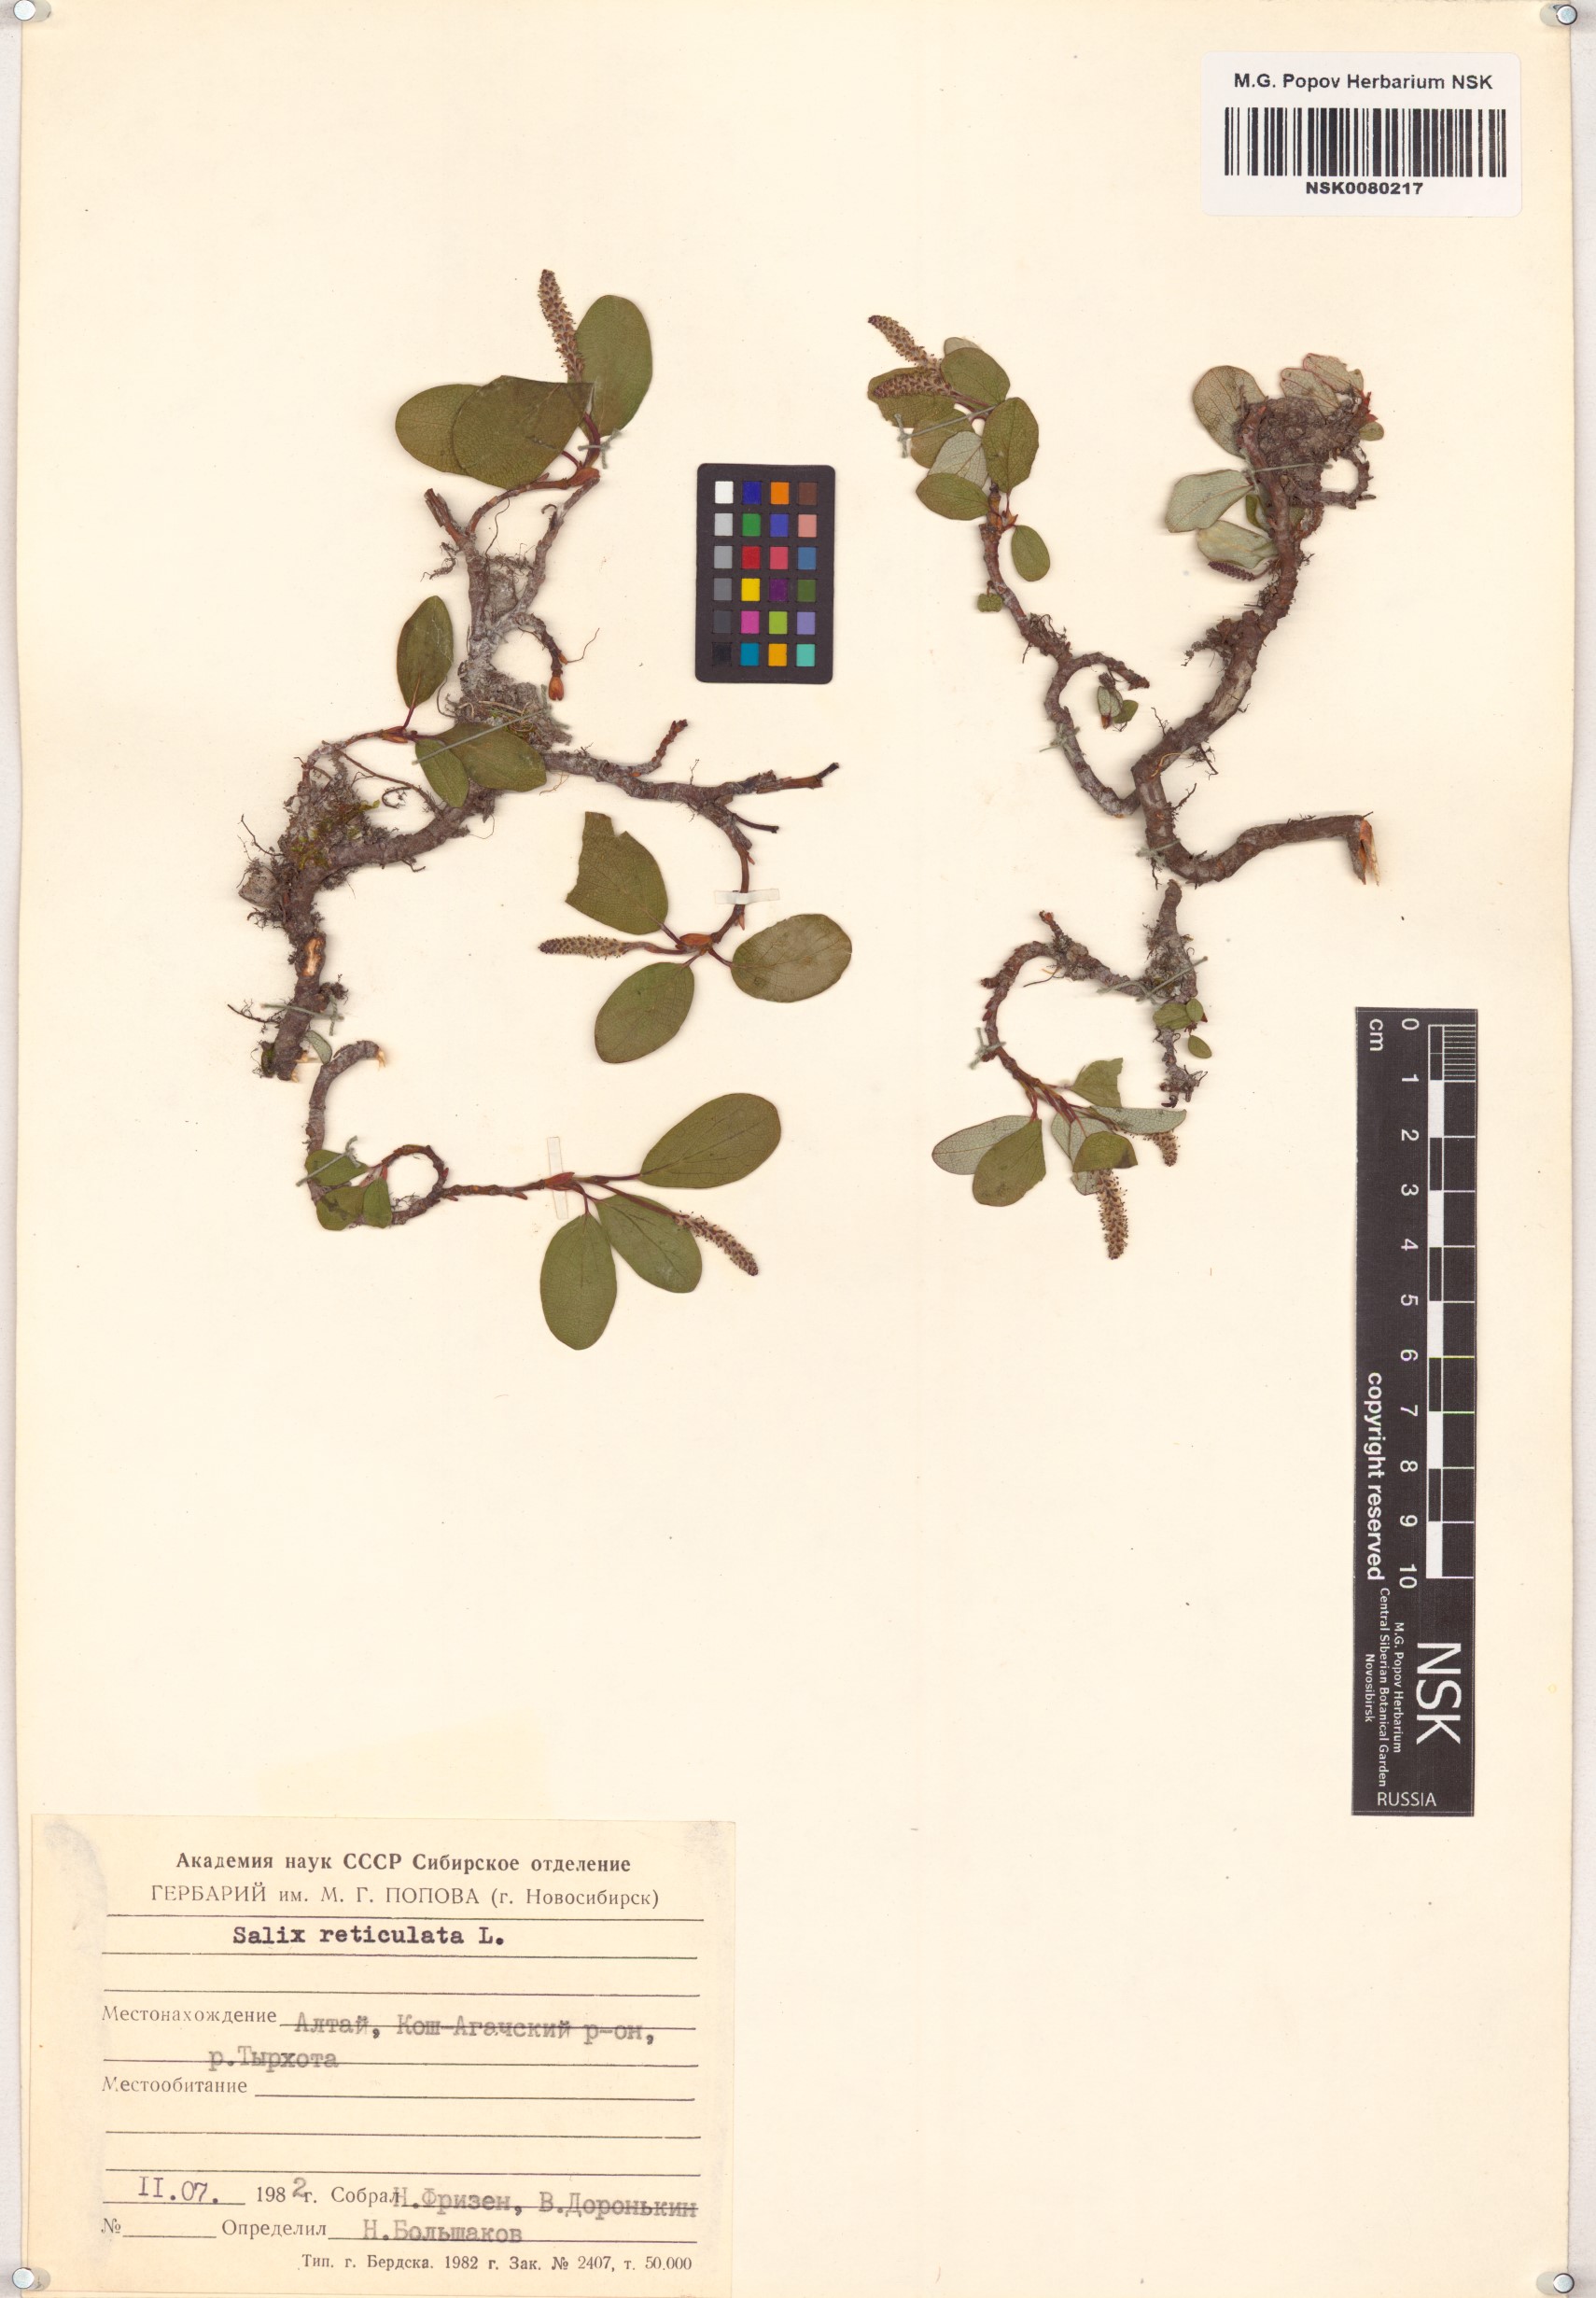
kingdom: Plantae
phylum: Tracheophyta
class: Magnoliopsida
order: Malpighiales
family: Salicaceae
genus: Salix
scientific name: Salix reticulata
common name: Net-leaved willow
